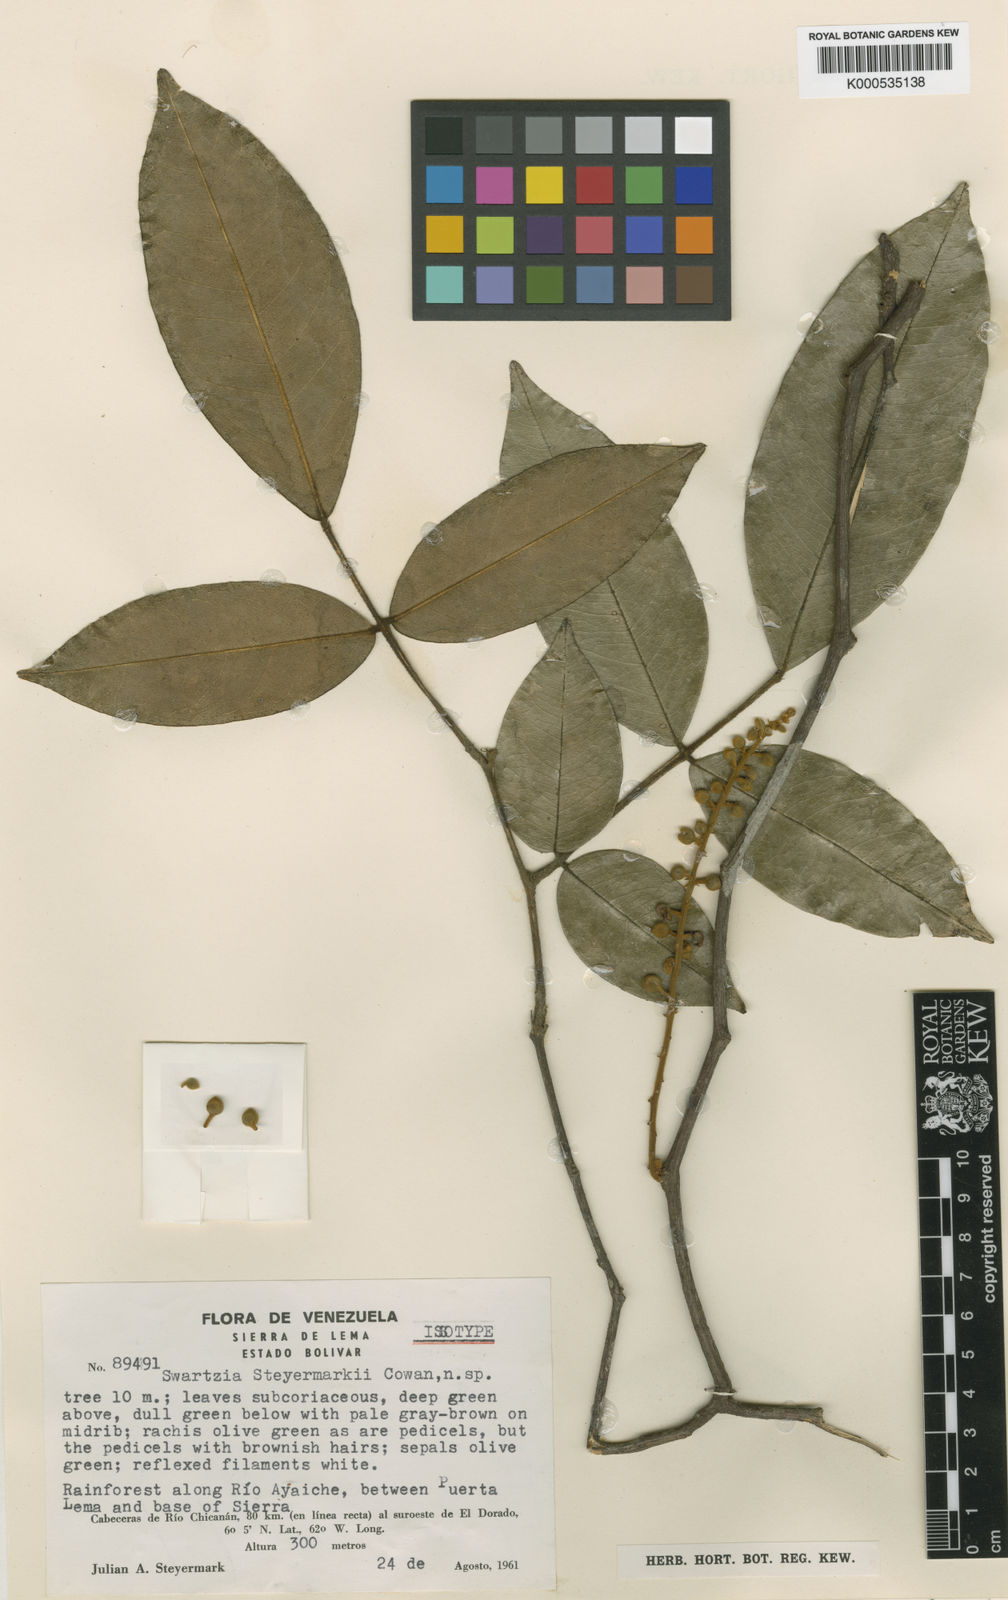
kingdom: Plantae
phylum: Tracheophyta
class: Magnoliopsida
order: Fabales
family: Fabaceae
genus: Swartzia
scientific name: Swartzia steyermarkii
